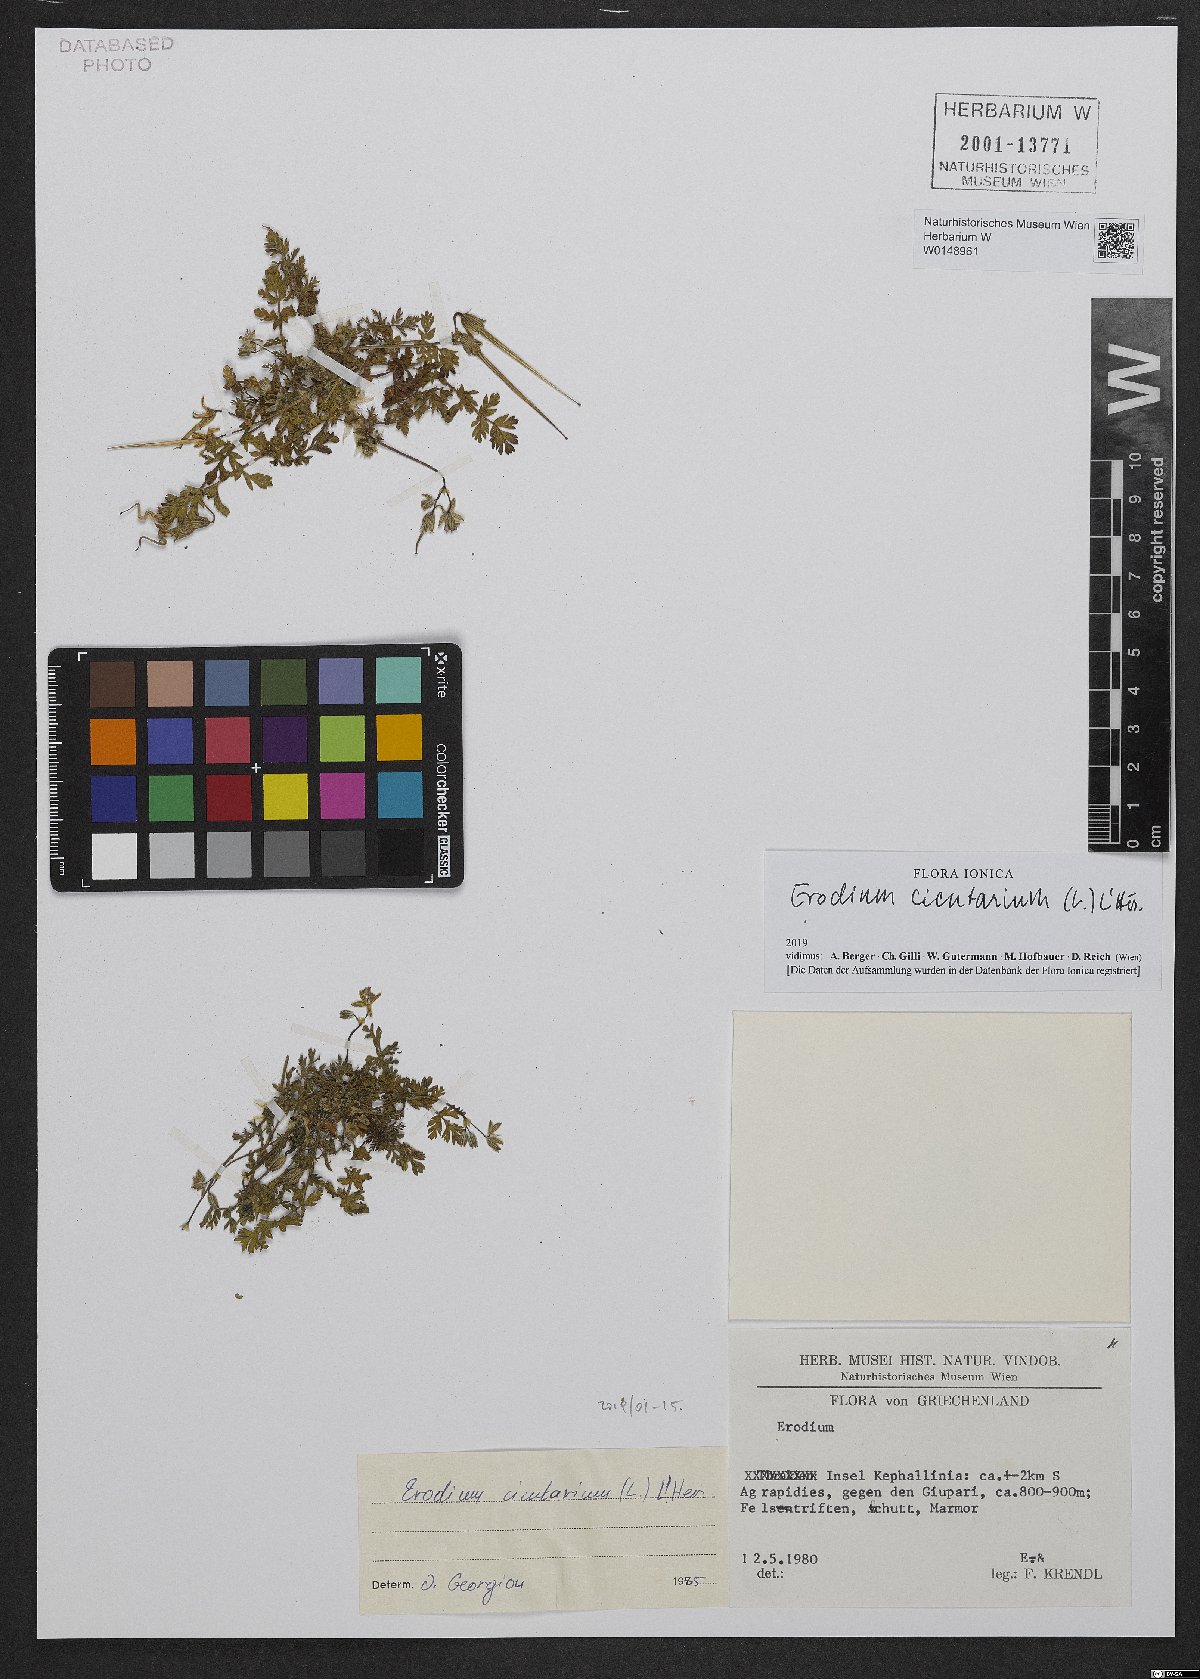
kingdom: Plantae
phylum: Tracheophyta
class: Magnoliopsida
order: Geraniales
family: Geraniaceae
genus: Erodium
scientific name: Erodium cicutarium
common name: Common stork's-bill
